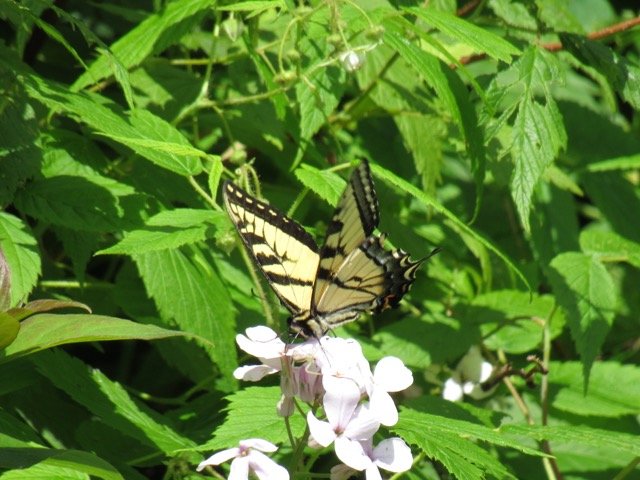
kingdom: Animalia
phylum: Arthropoda
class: Insecta
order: Lepidoptera
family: Papilionidae
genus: Pterourus
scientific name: Pterourus canadensis
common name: Canadian Tiger Swallowtail
